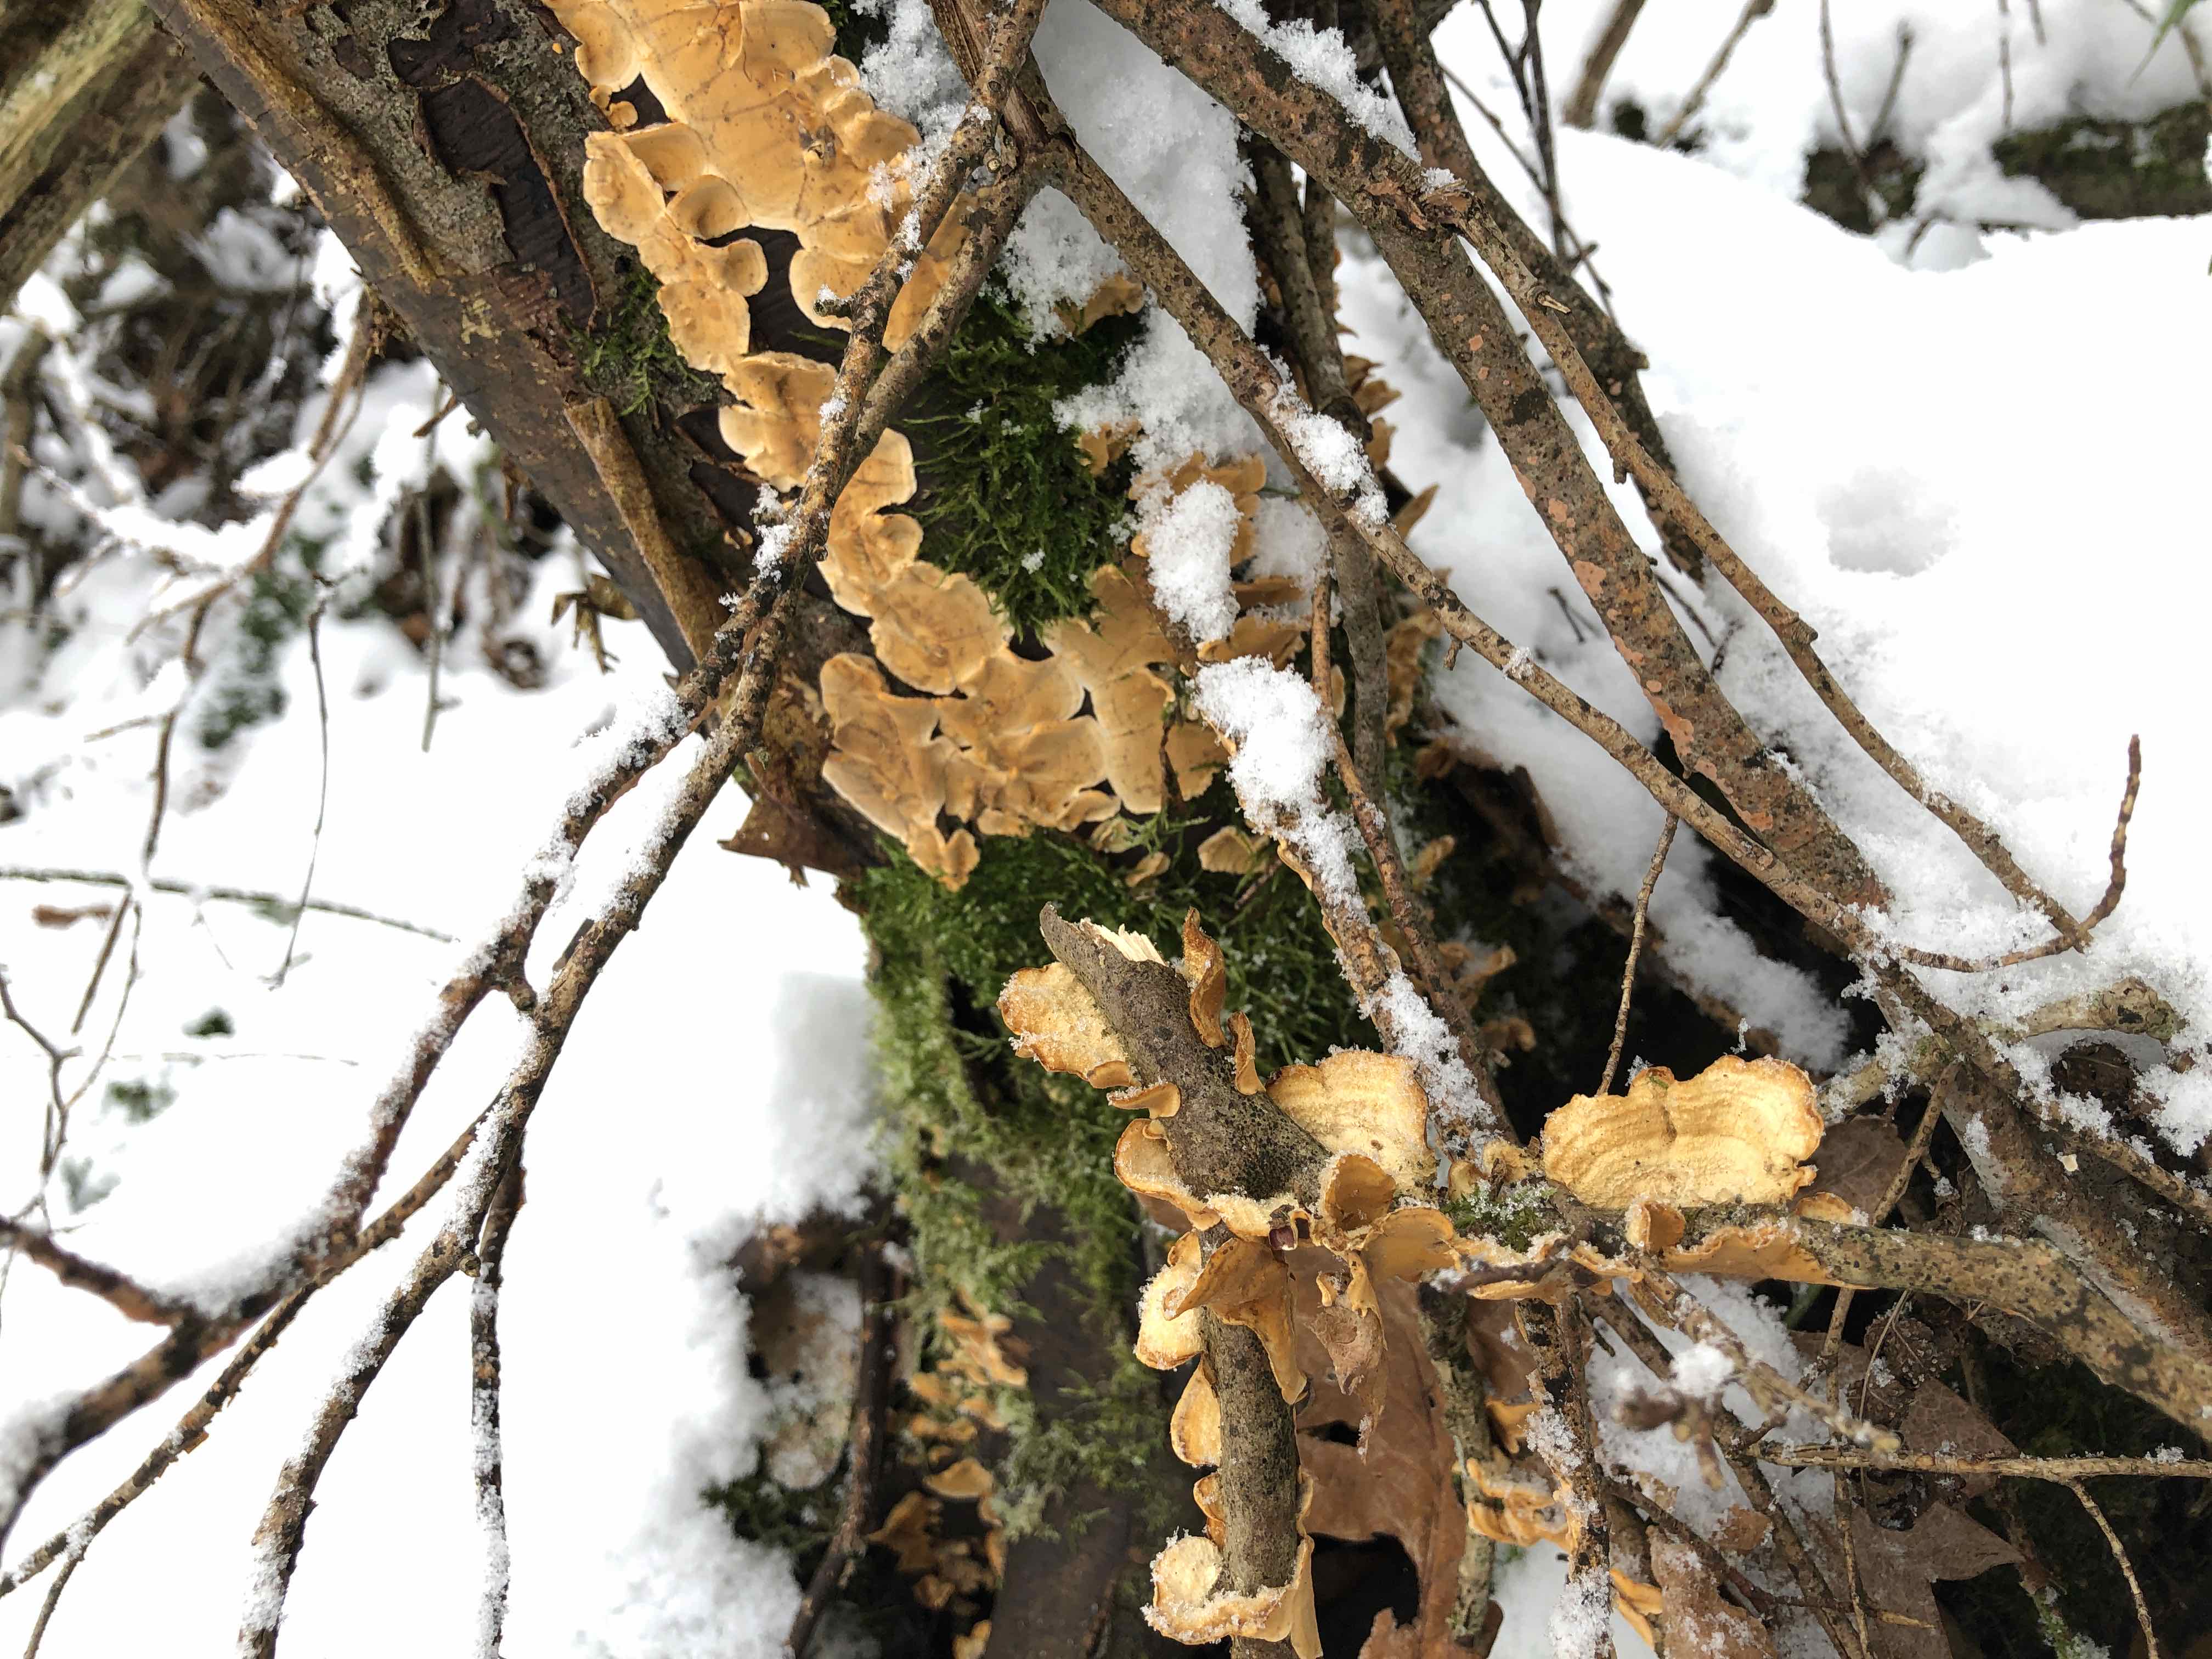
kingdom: Fungi
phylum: Basidiomycota
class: Agaricomycetes
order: Russulales
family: Stereaceae
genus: Stereum
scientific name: Stereum hirsutum
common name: håret lædersvamp
